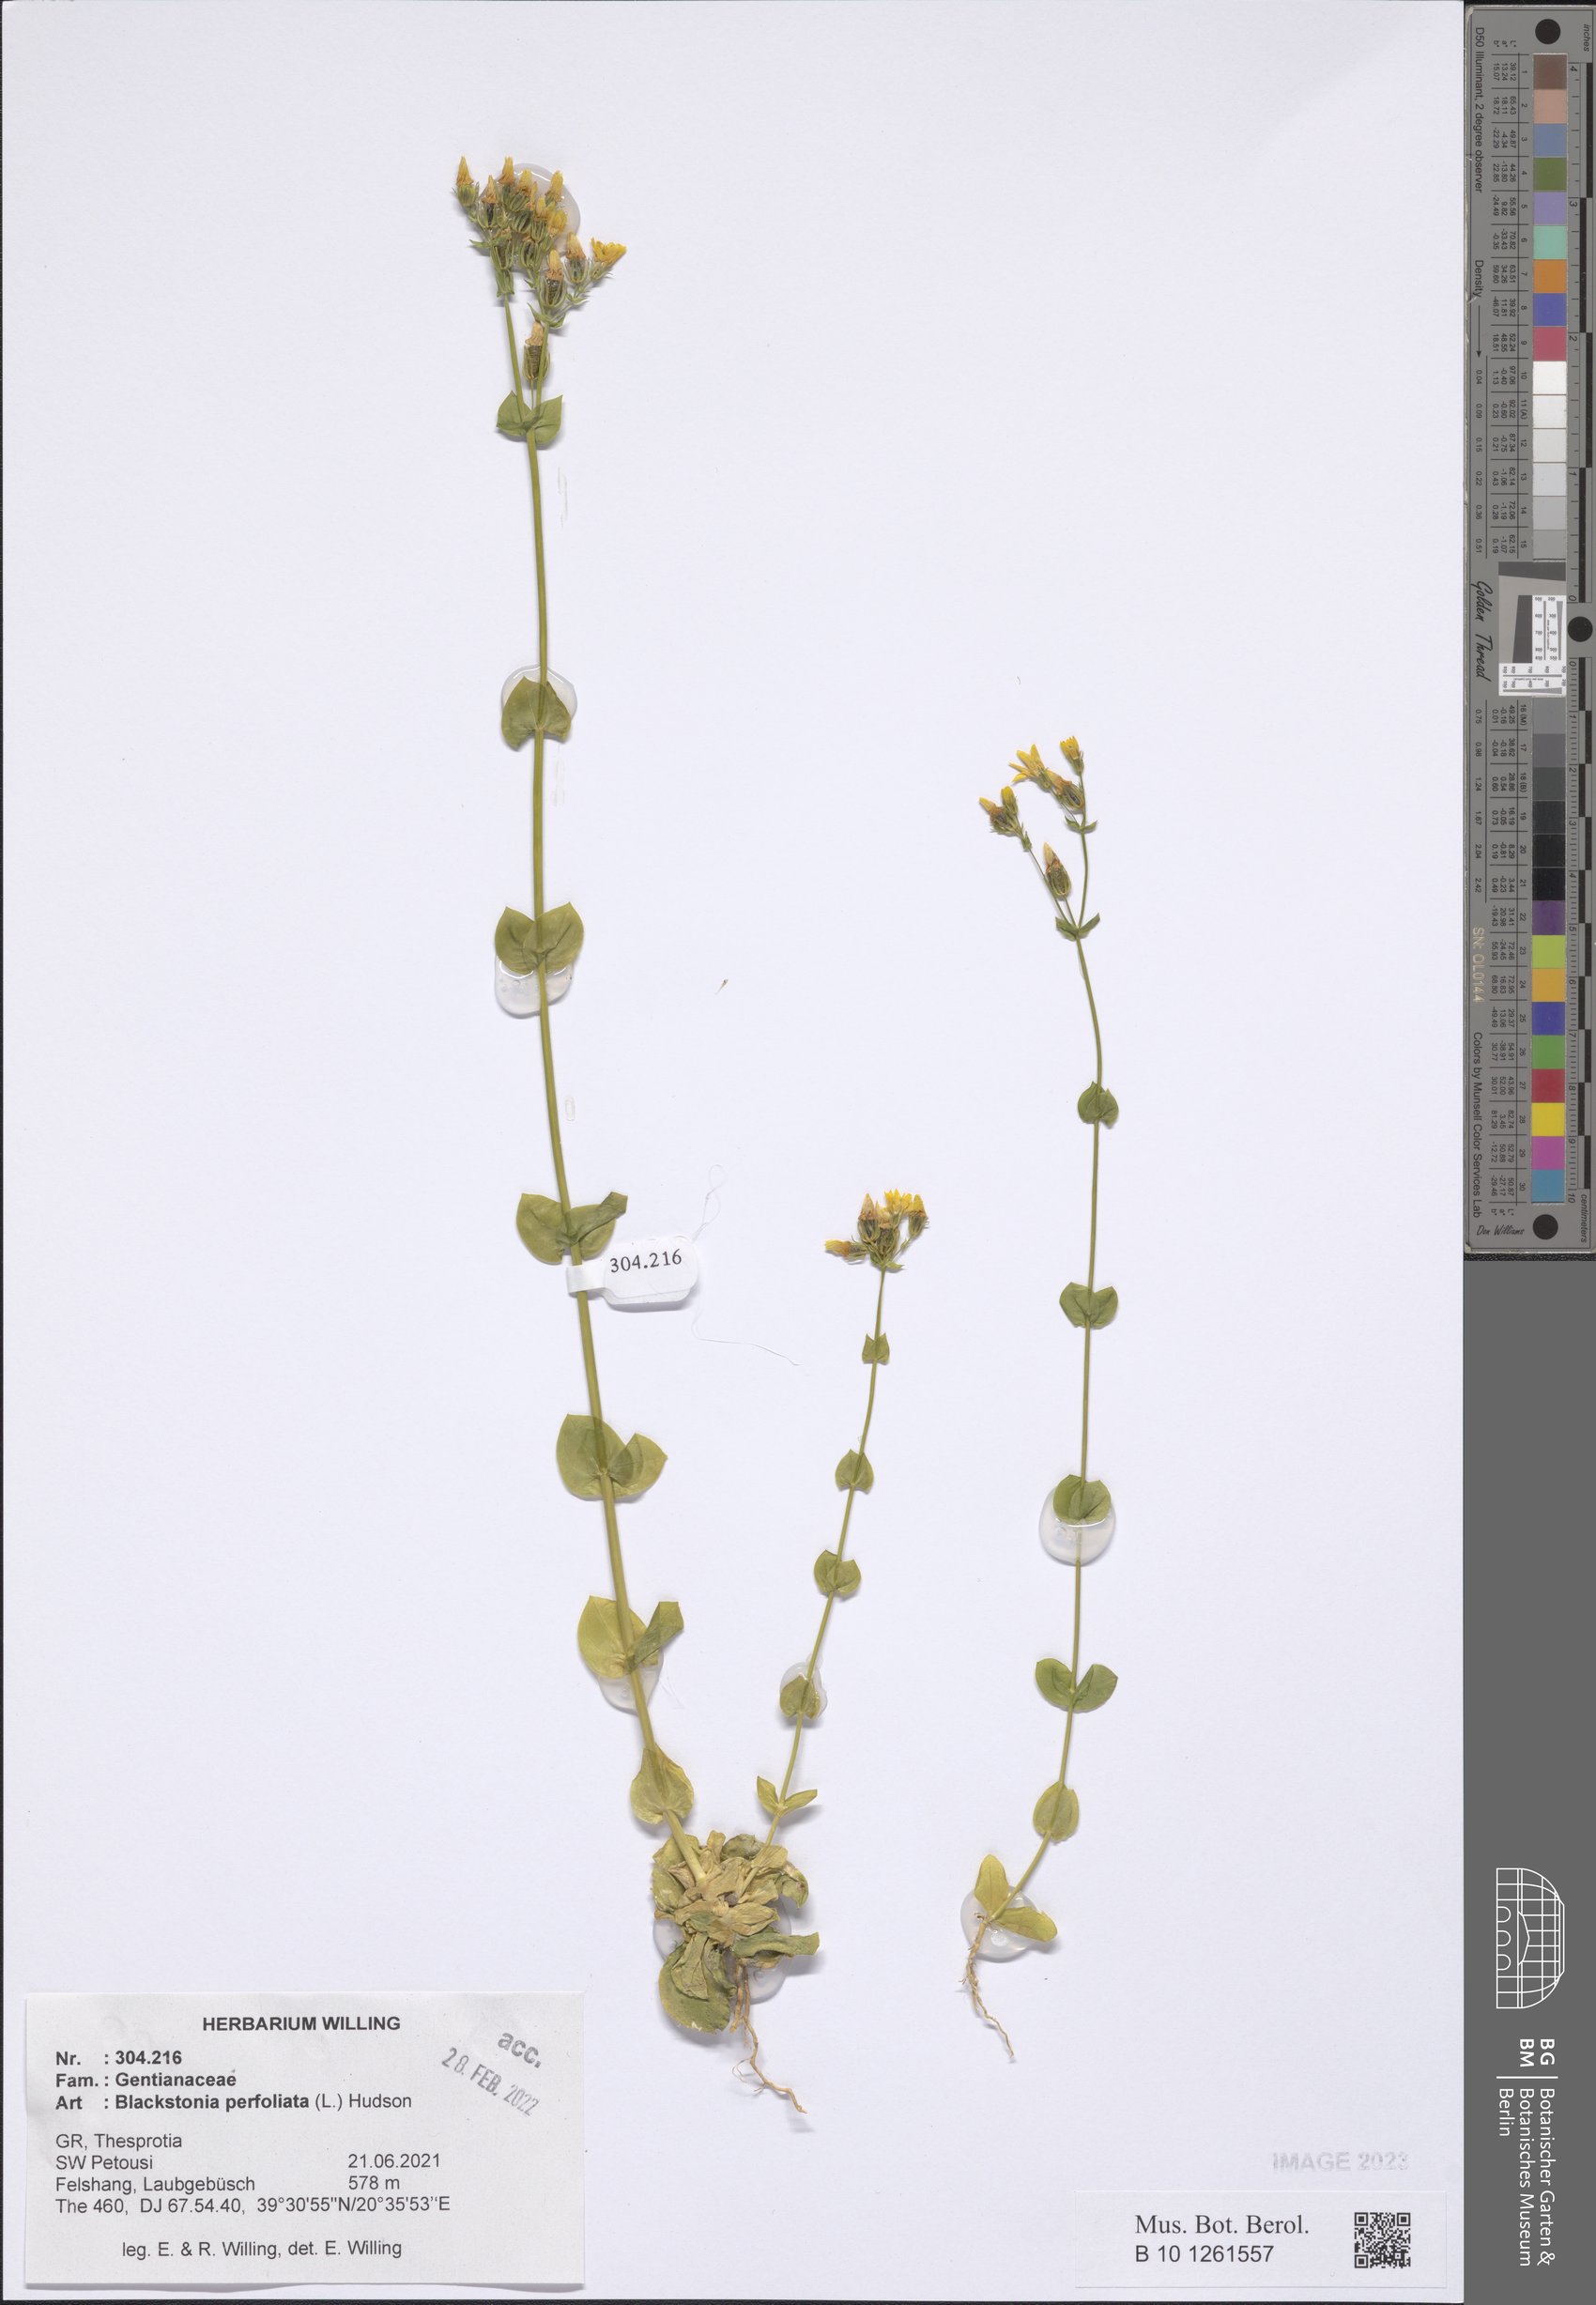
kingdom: Plantae
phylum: Tracheophyta
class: Magnoliopsida
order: Gentianales
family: Gentianaceae
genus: Blackstonia
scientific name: Blackstonia perfoliata
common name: Yellow-wort
